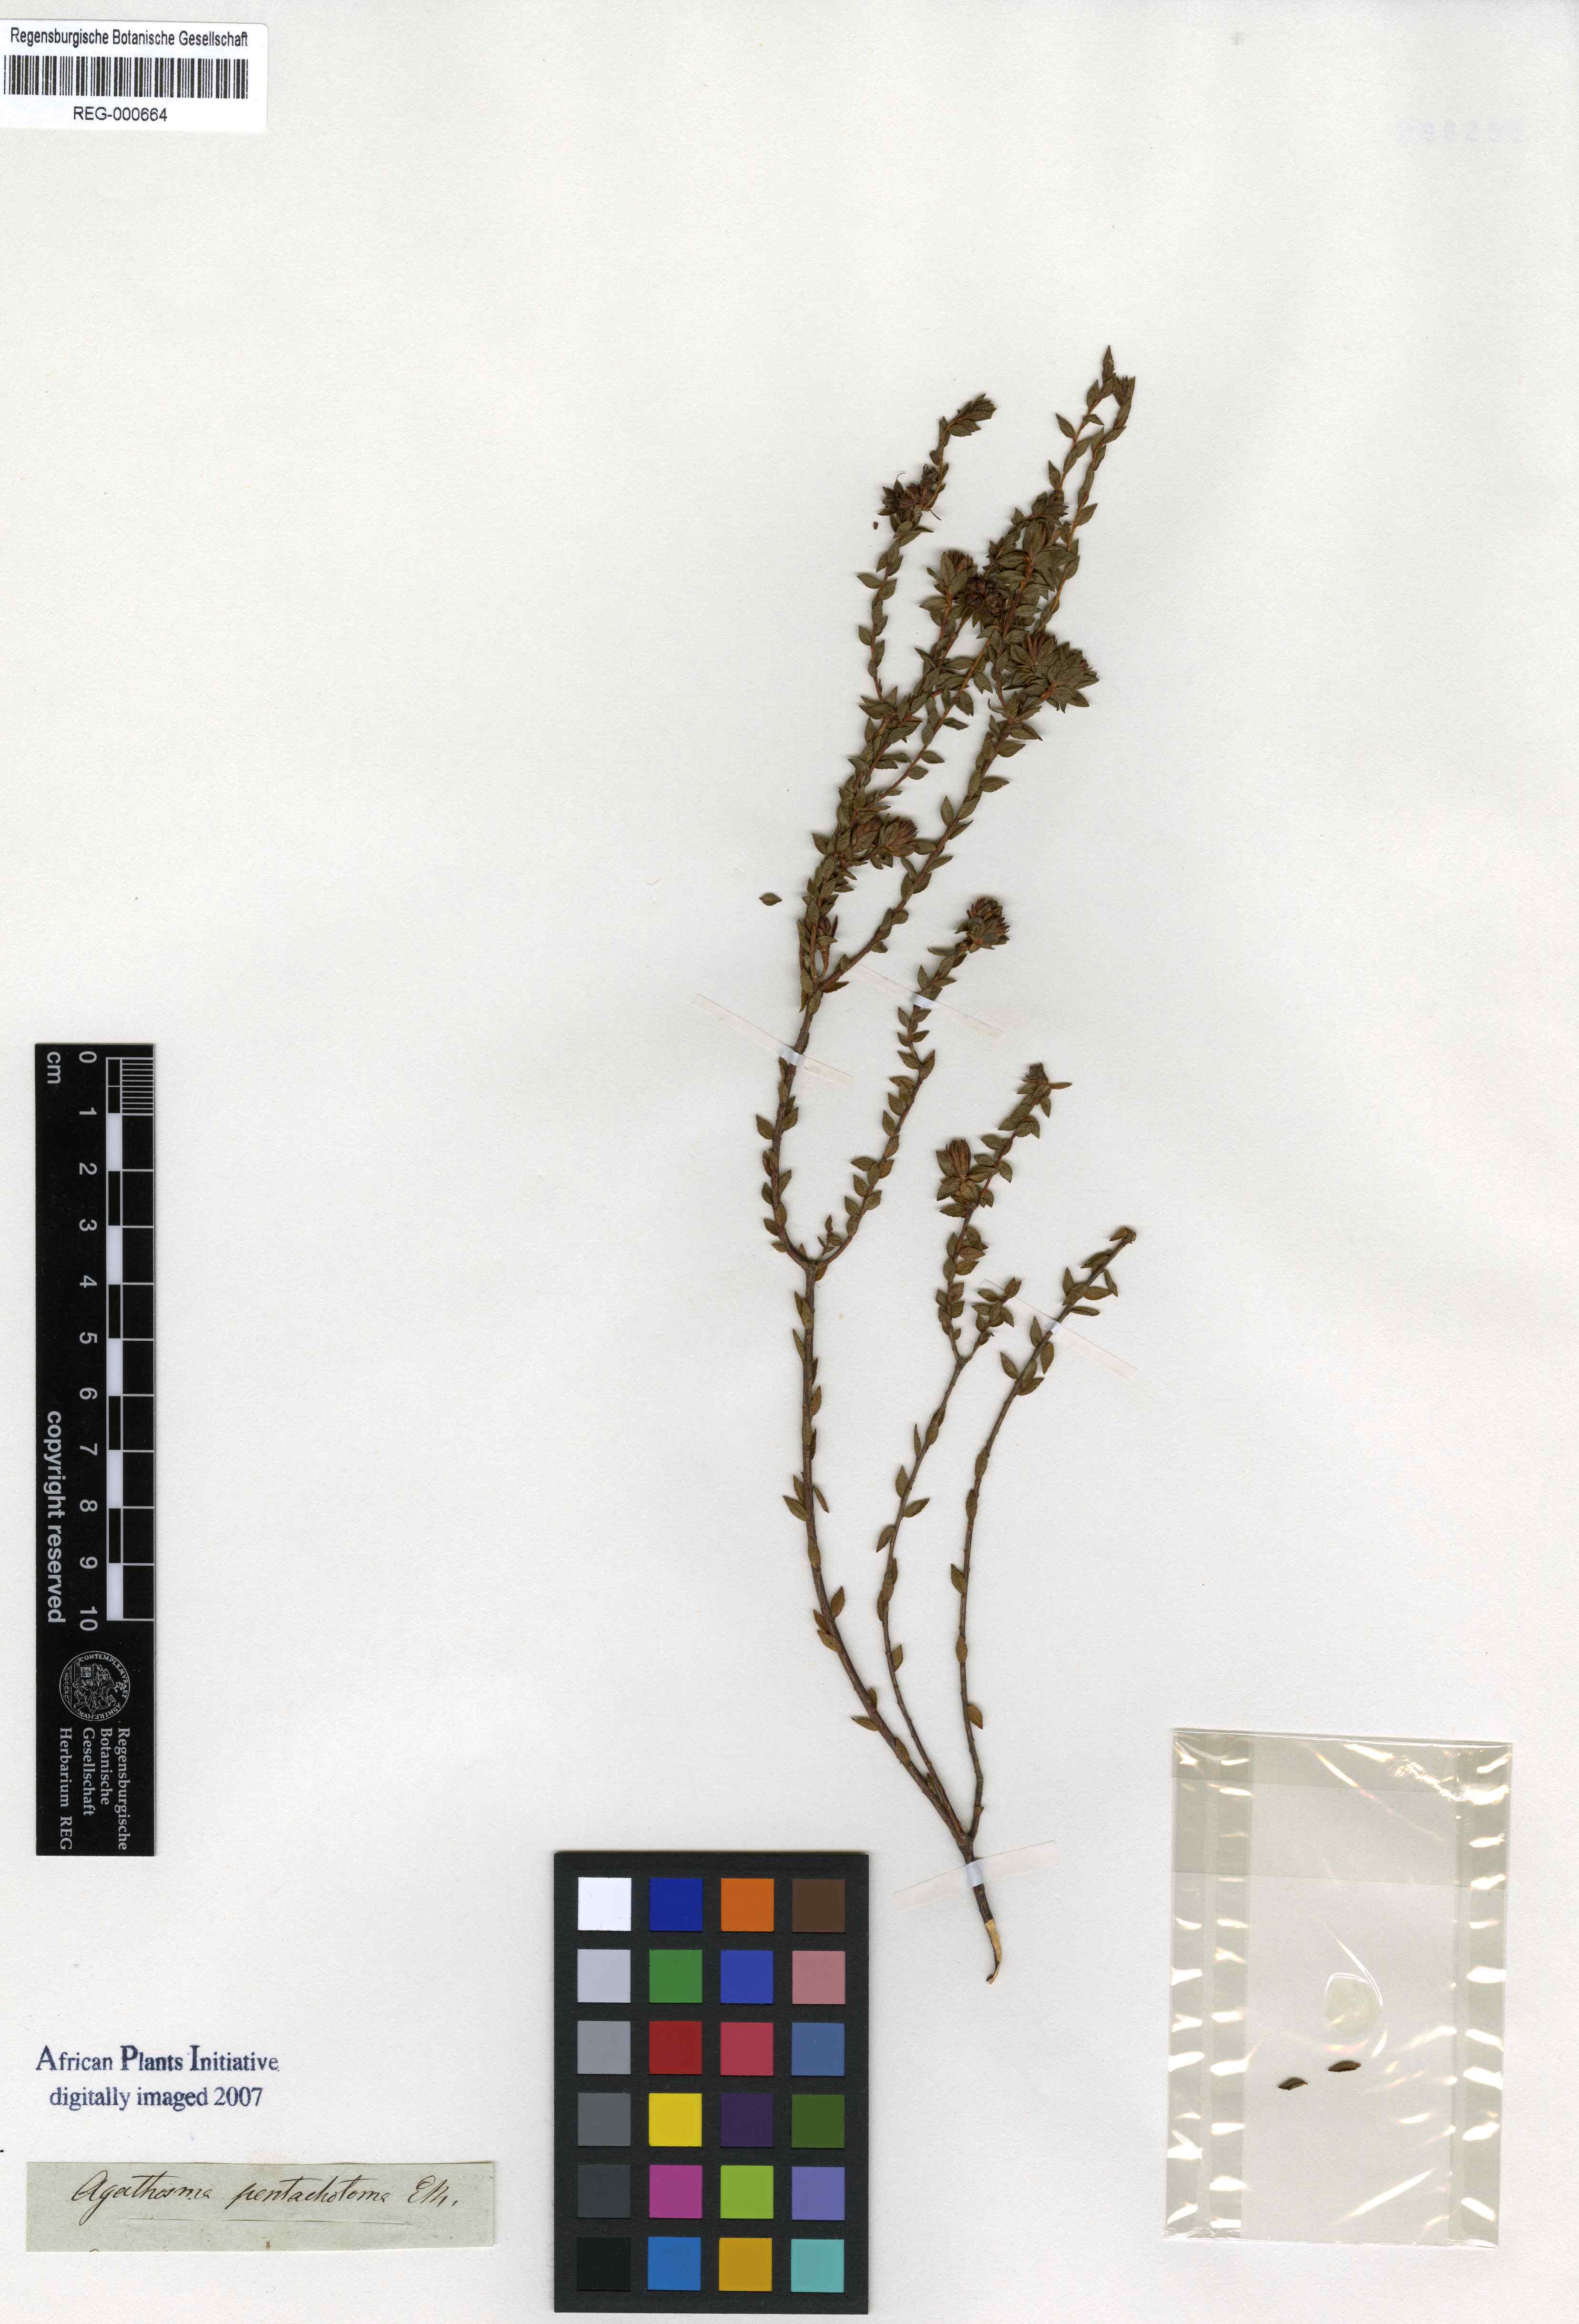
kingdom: Plantae
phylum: Tracheophyta
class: Magnoliopsida
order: Sapindales
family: Rutaceae
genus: Agathosma
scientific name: Agathosma pentachotoma
